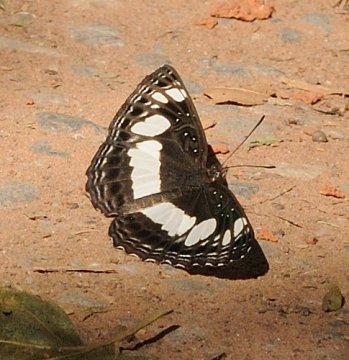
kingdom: Animalia
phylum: Arthropoda
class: Insecta
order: Lepidoptera
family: Nymphalidae
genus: Neptis
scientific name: Neptis saclava
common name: Spotted Sailer
